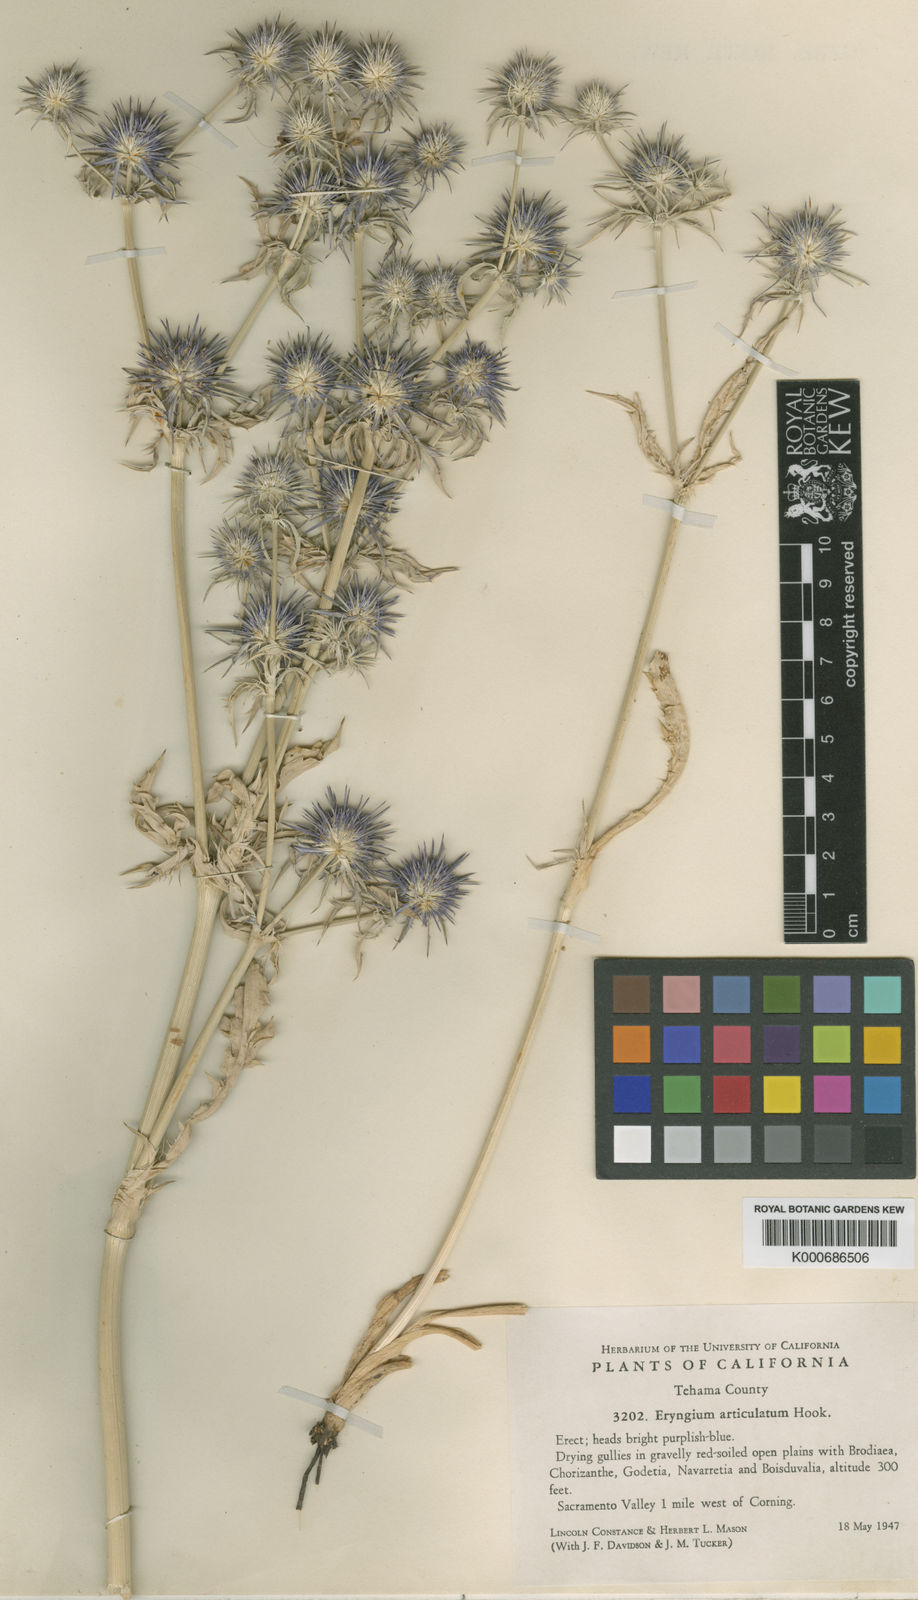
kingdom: Plantae
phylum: Tracheophyta
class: Magnoliopsida
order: Apiales
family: Apiaceae
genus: Eryngium
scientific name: Eryngium articulatum
